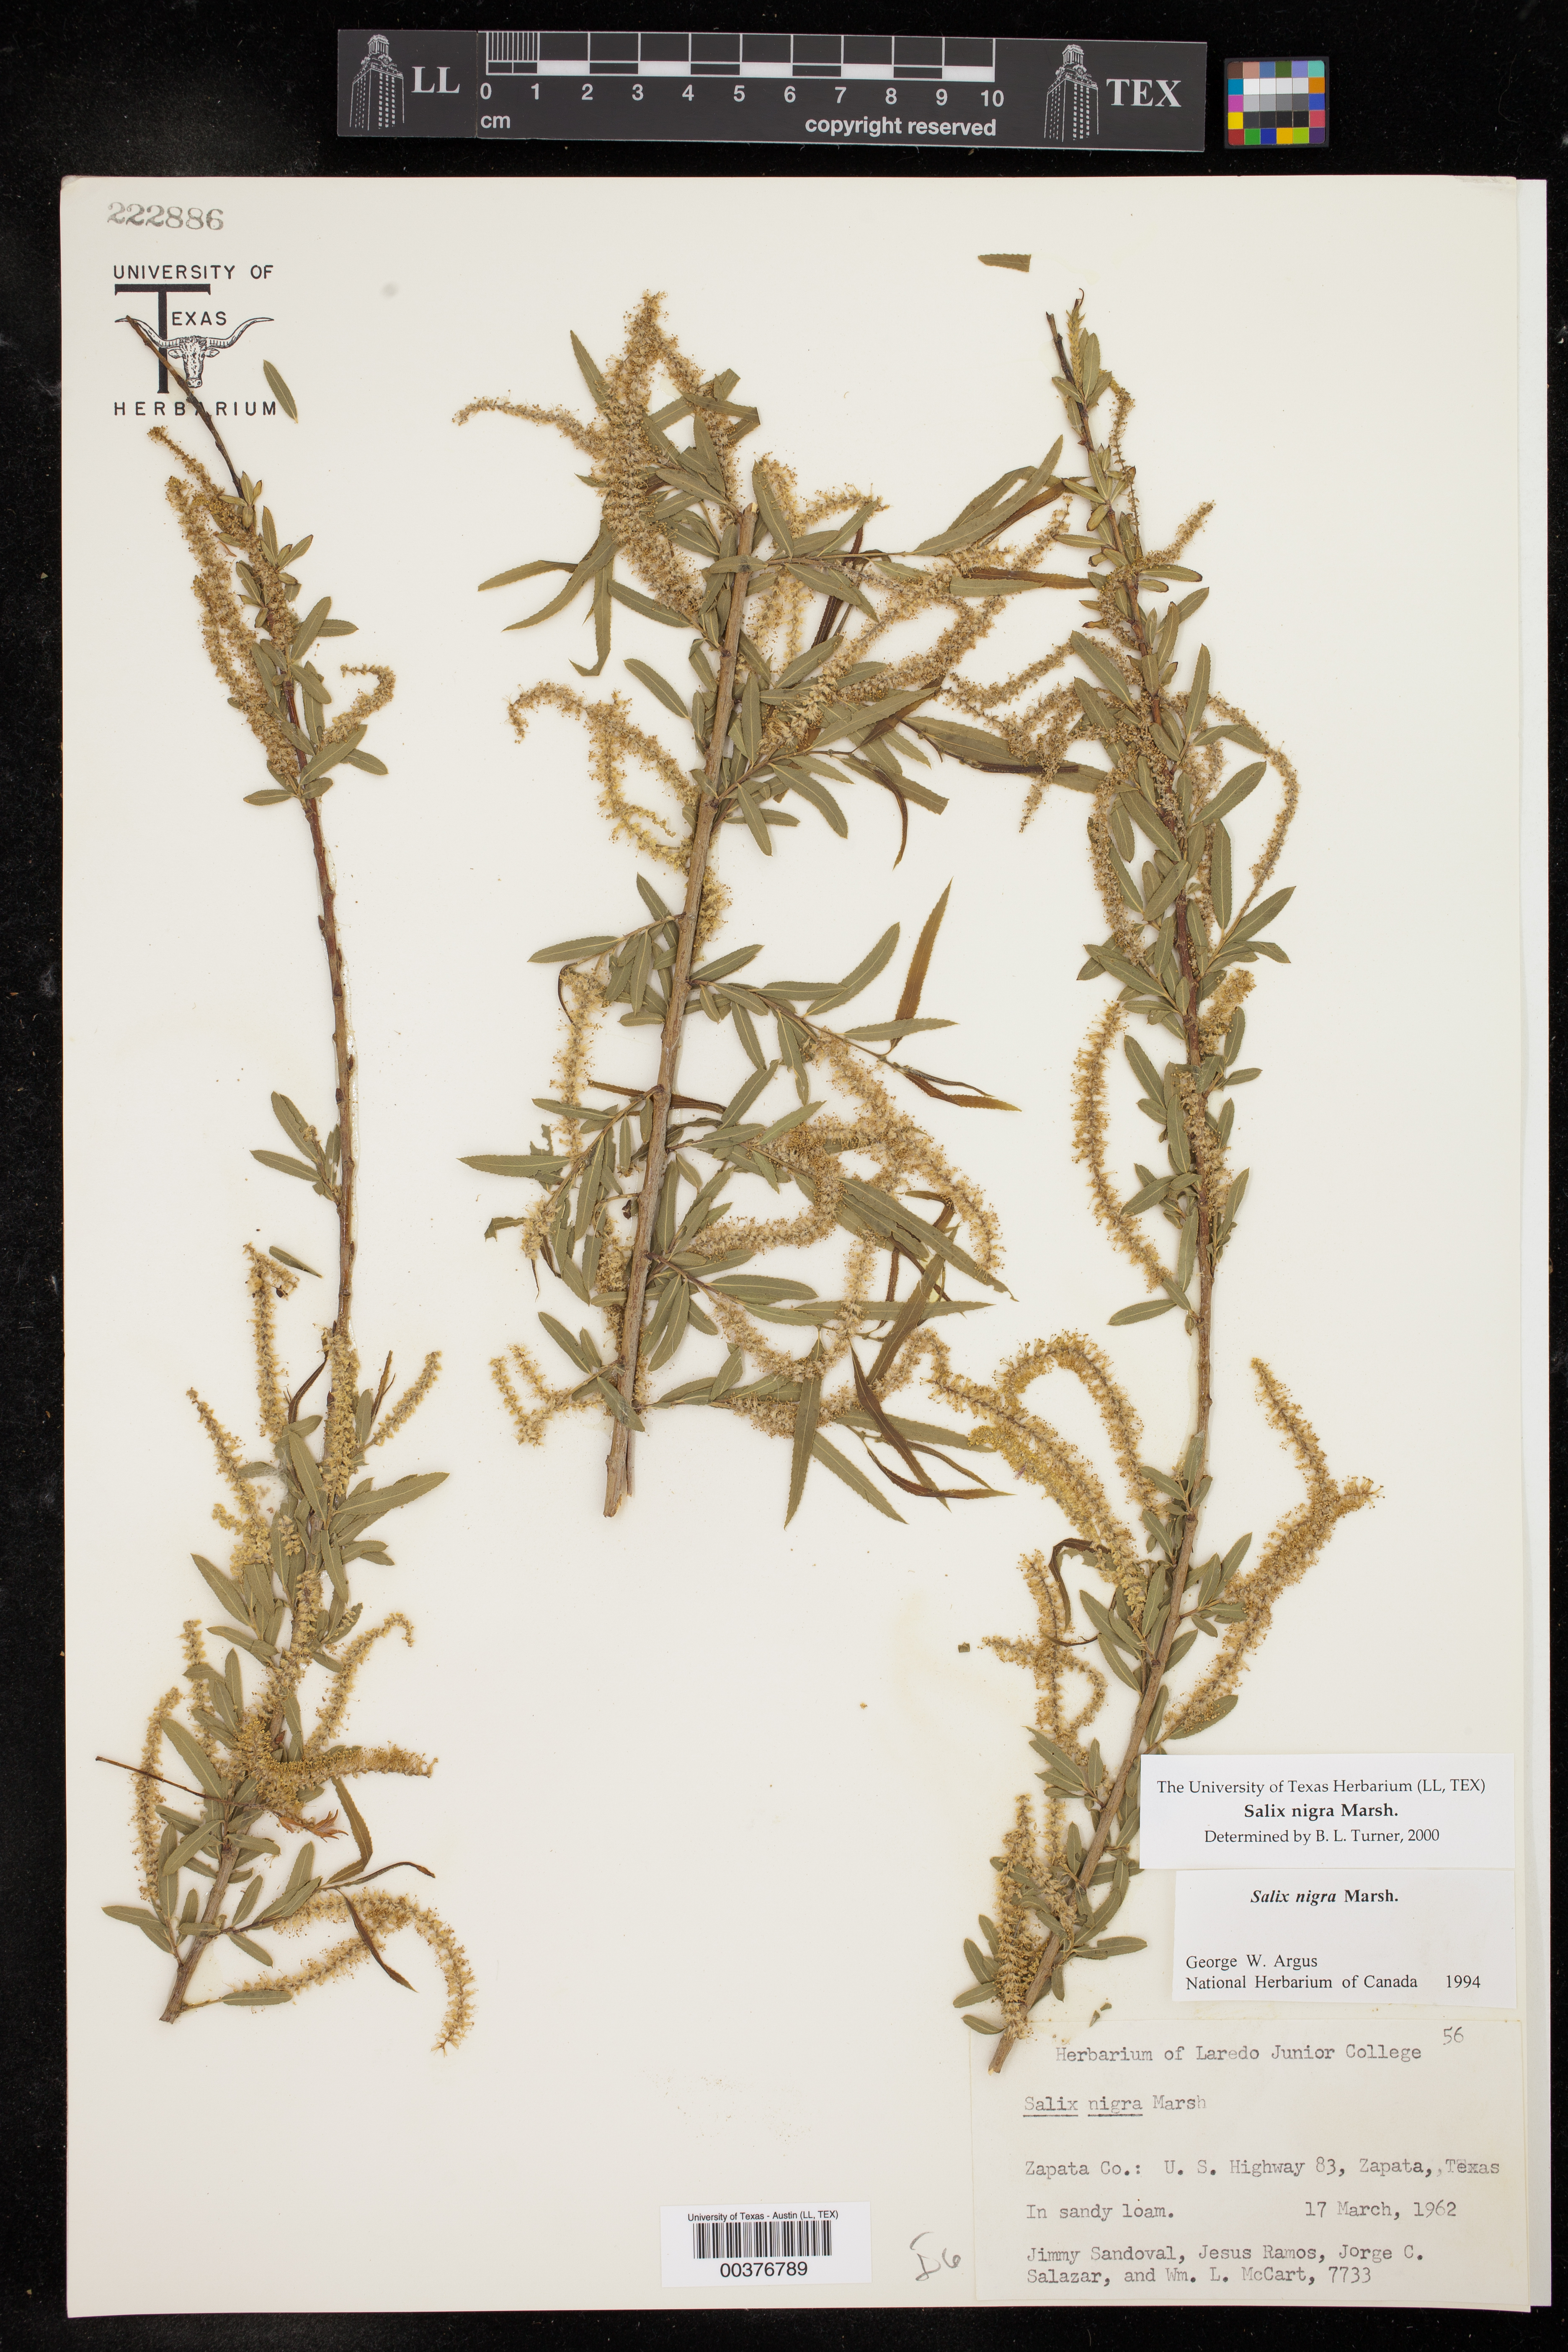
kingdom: Plantae
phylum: Tracheophyta
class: Magnoliopsida
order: Malpighiales
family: Salicaceae
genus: Salix
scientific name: Salix nigra
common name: Black willow
